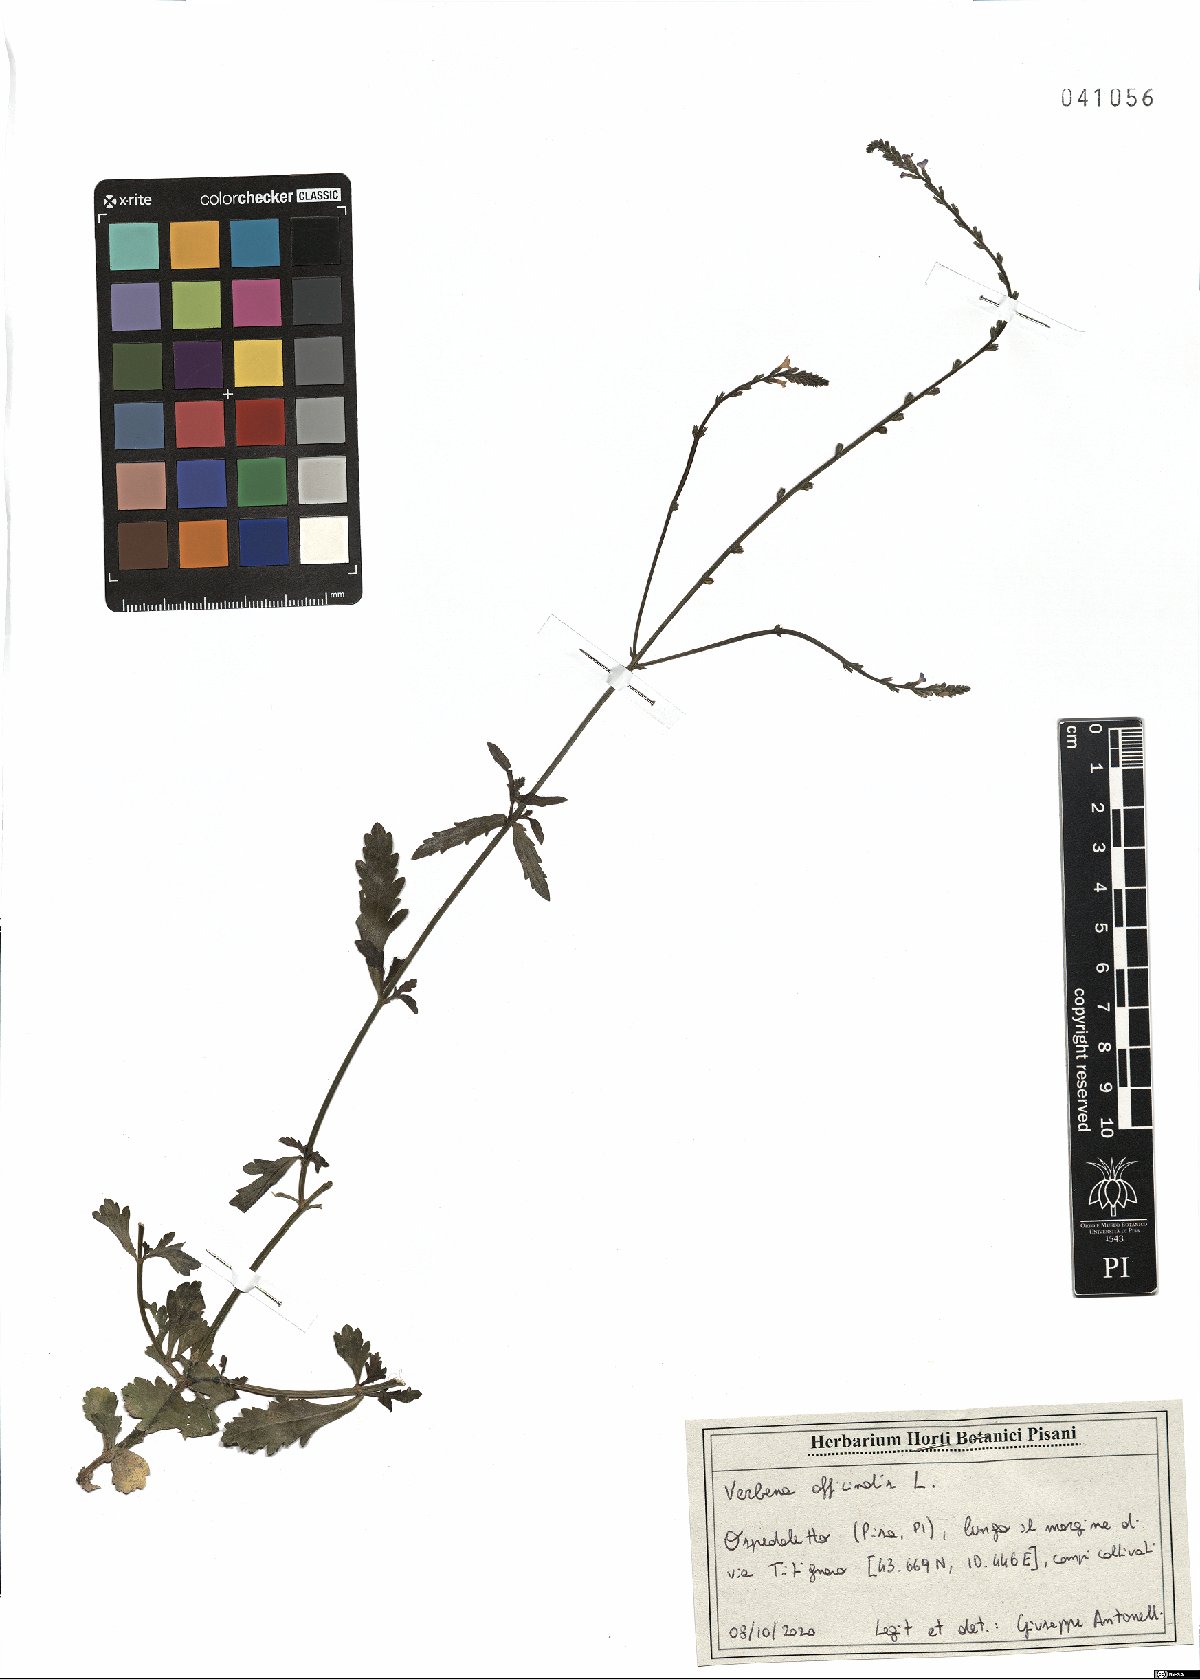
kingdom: Plantae
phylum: Tracheophyta
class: Magnoliopsida
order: Lamiales
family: Verbenaceae
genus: Verbena
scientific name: Verbena officinalis
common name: Vervain
